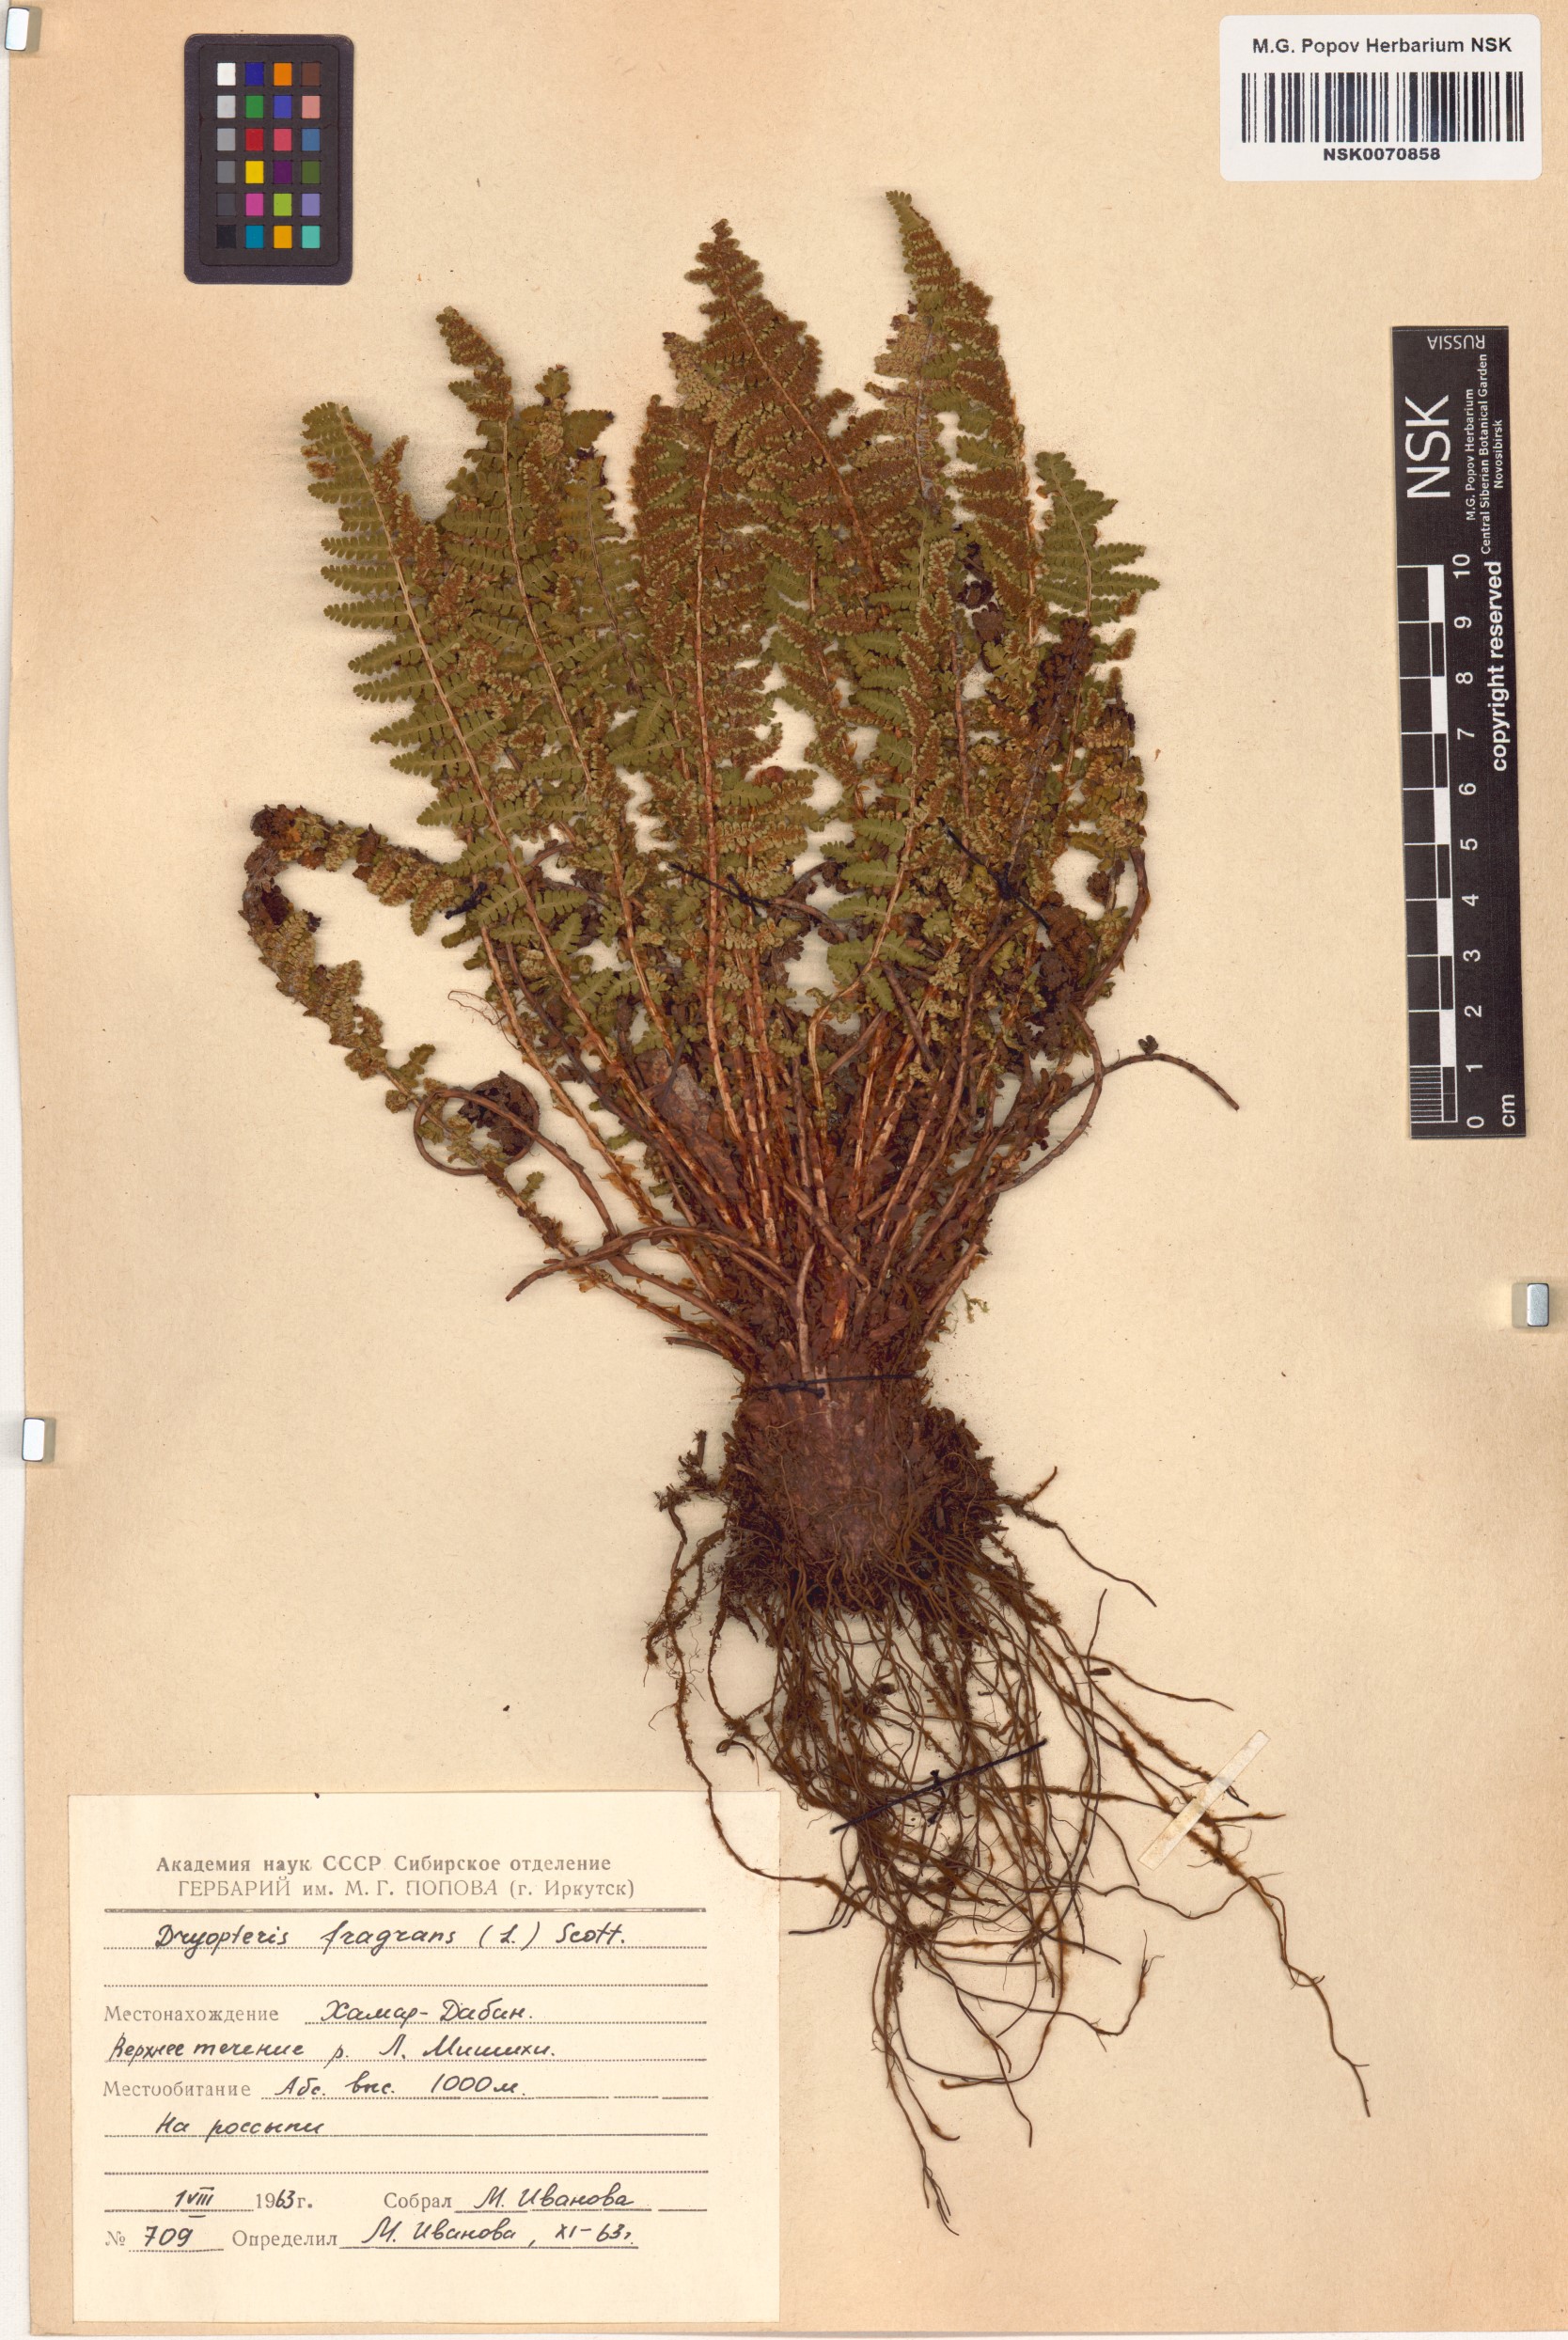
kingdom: Plantae
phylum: Tracheophyta
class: Polypodiopsida
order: Polypodiales
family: Dryopteridaceae
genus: Dryopteris
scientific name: Dryopteris fragrans
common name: Fragrant wood fern
